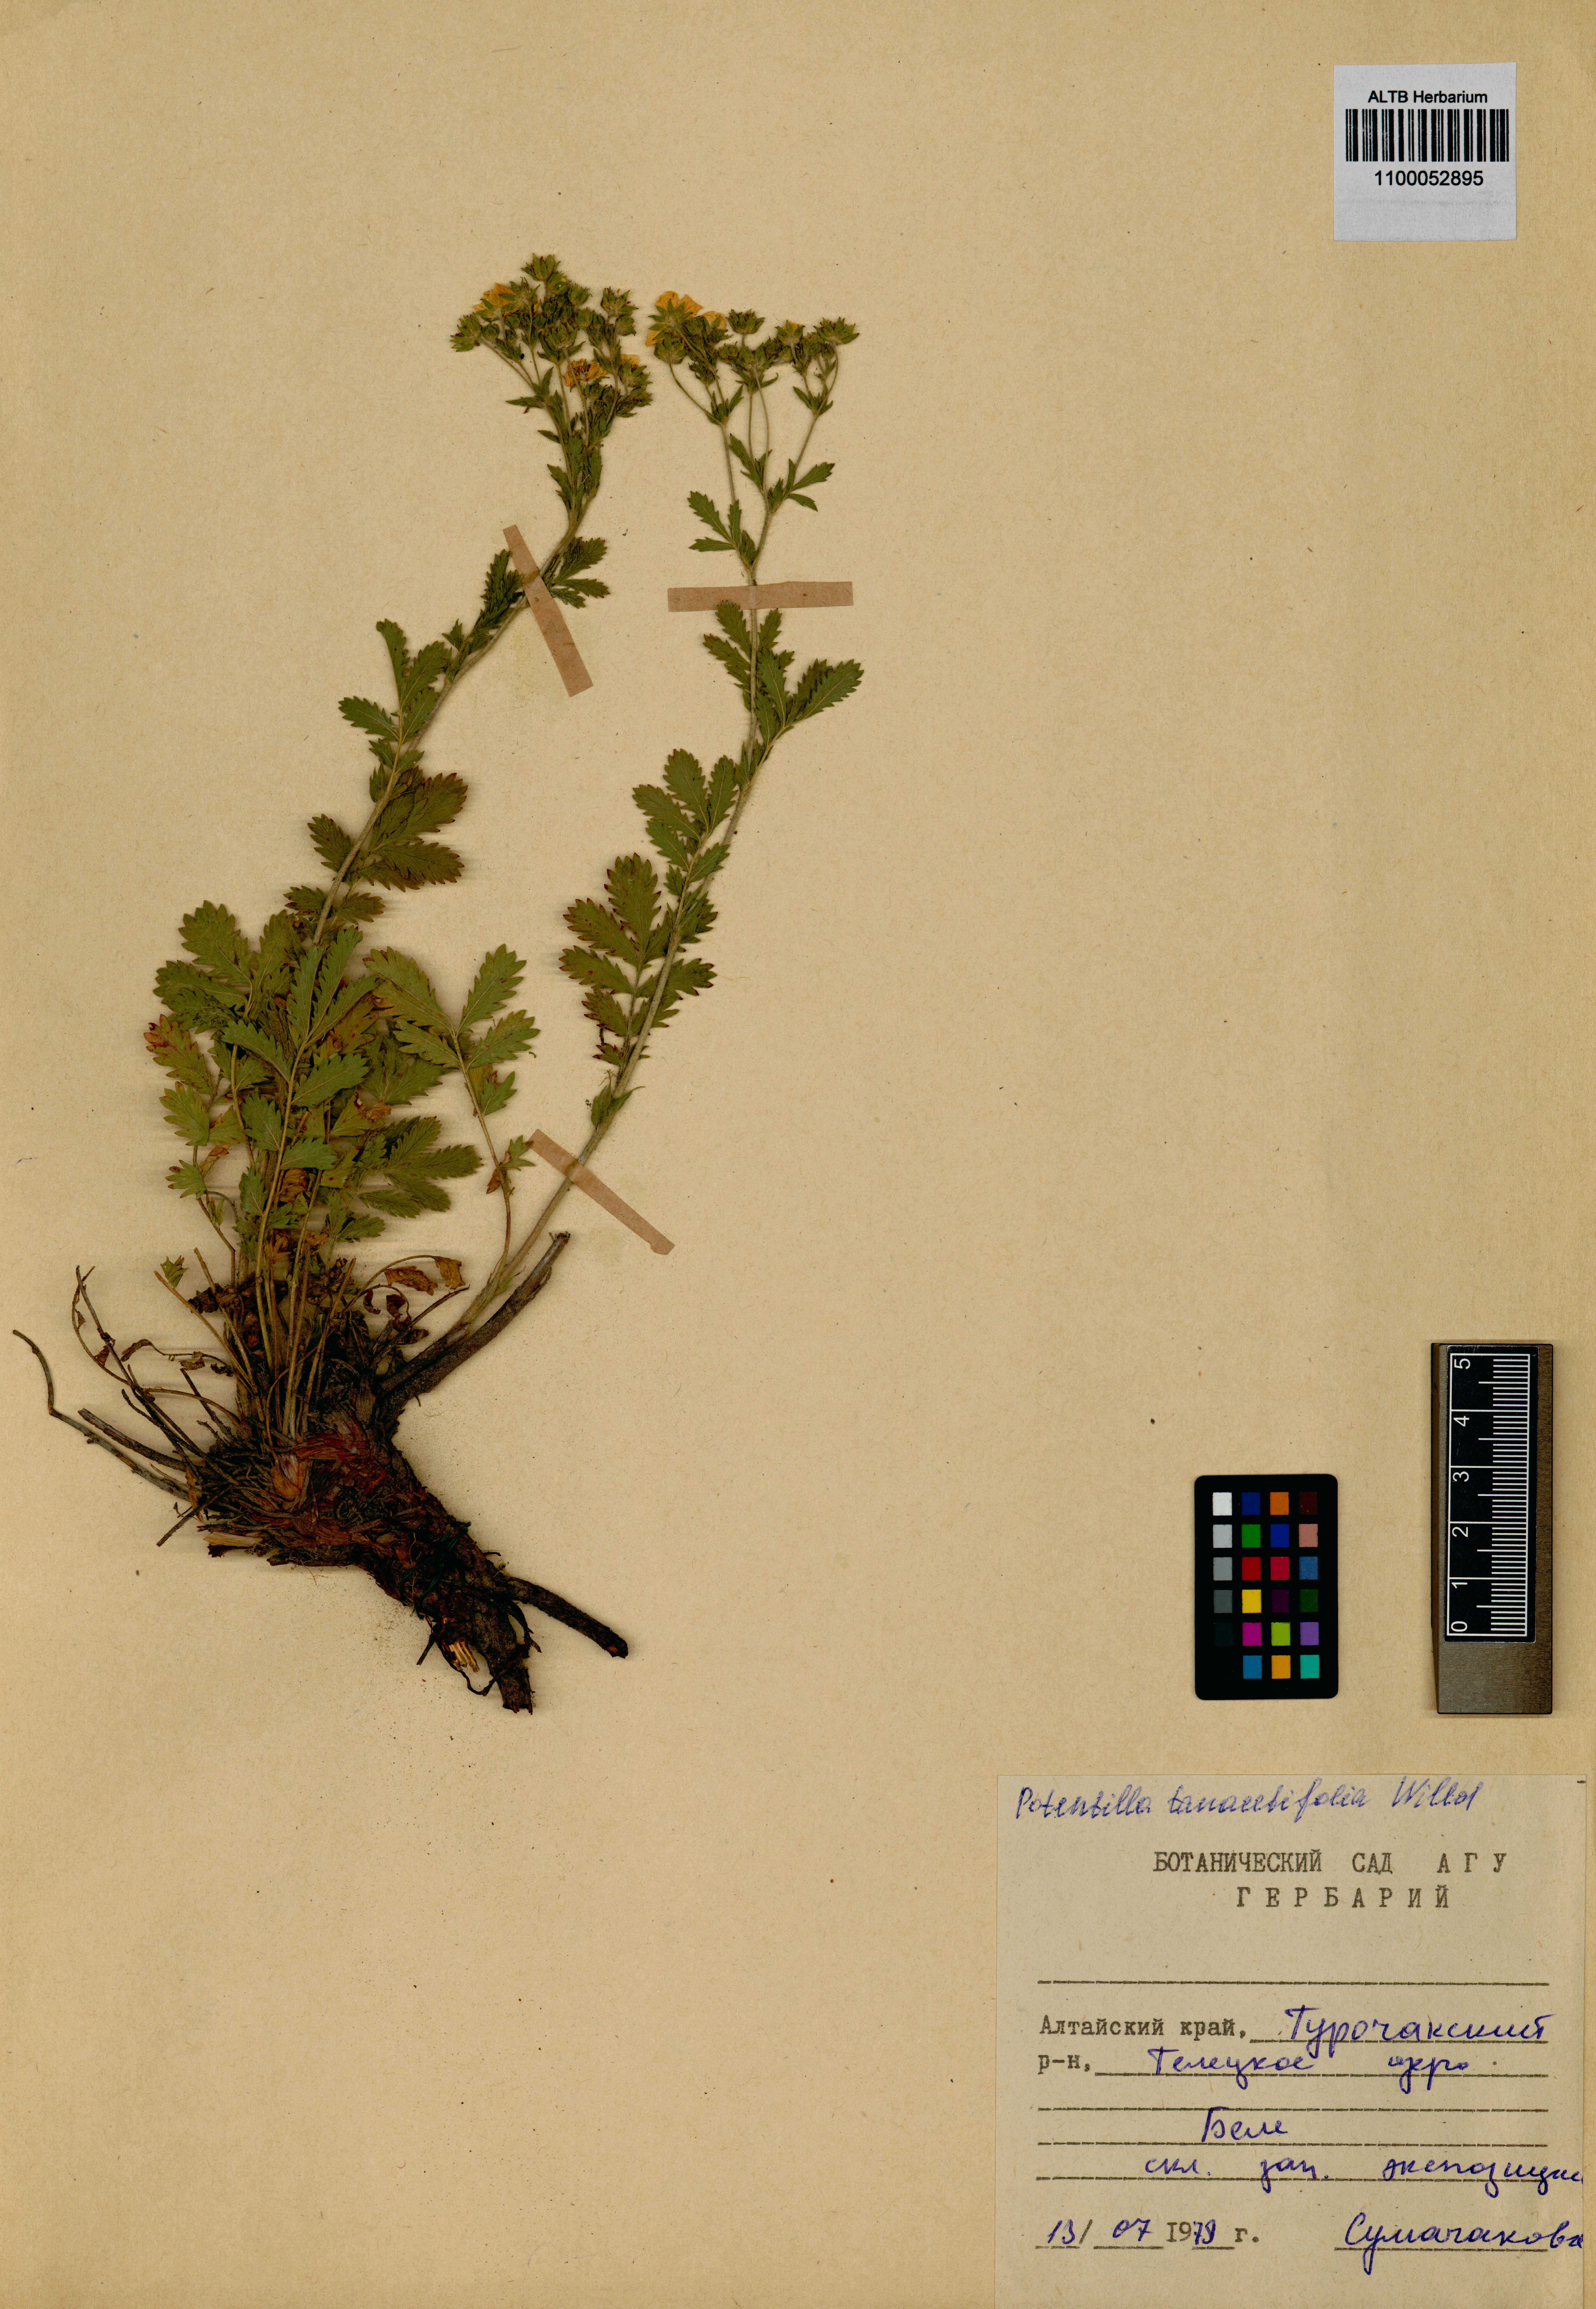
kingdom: Plantae
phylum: Tracheophyta
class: Magnoliopsida
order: Rosales
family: Rosaceae
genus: Potentilla
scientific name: Potentilla tanacetifolia
